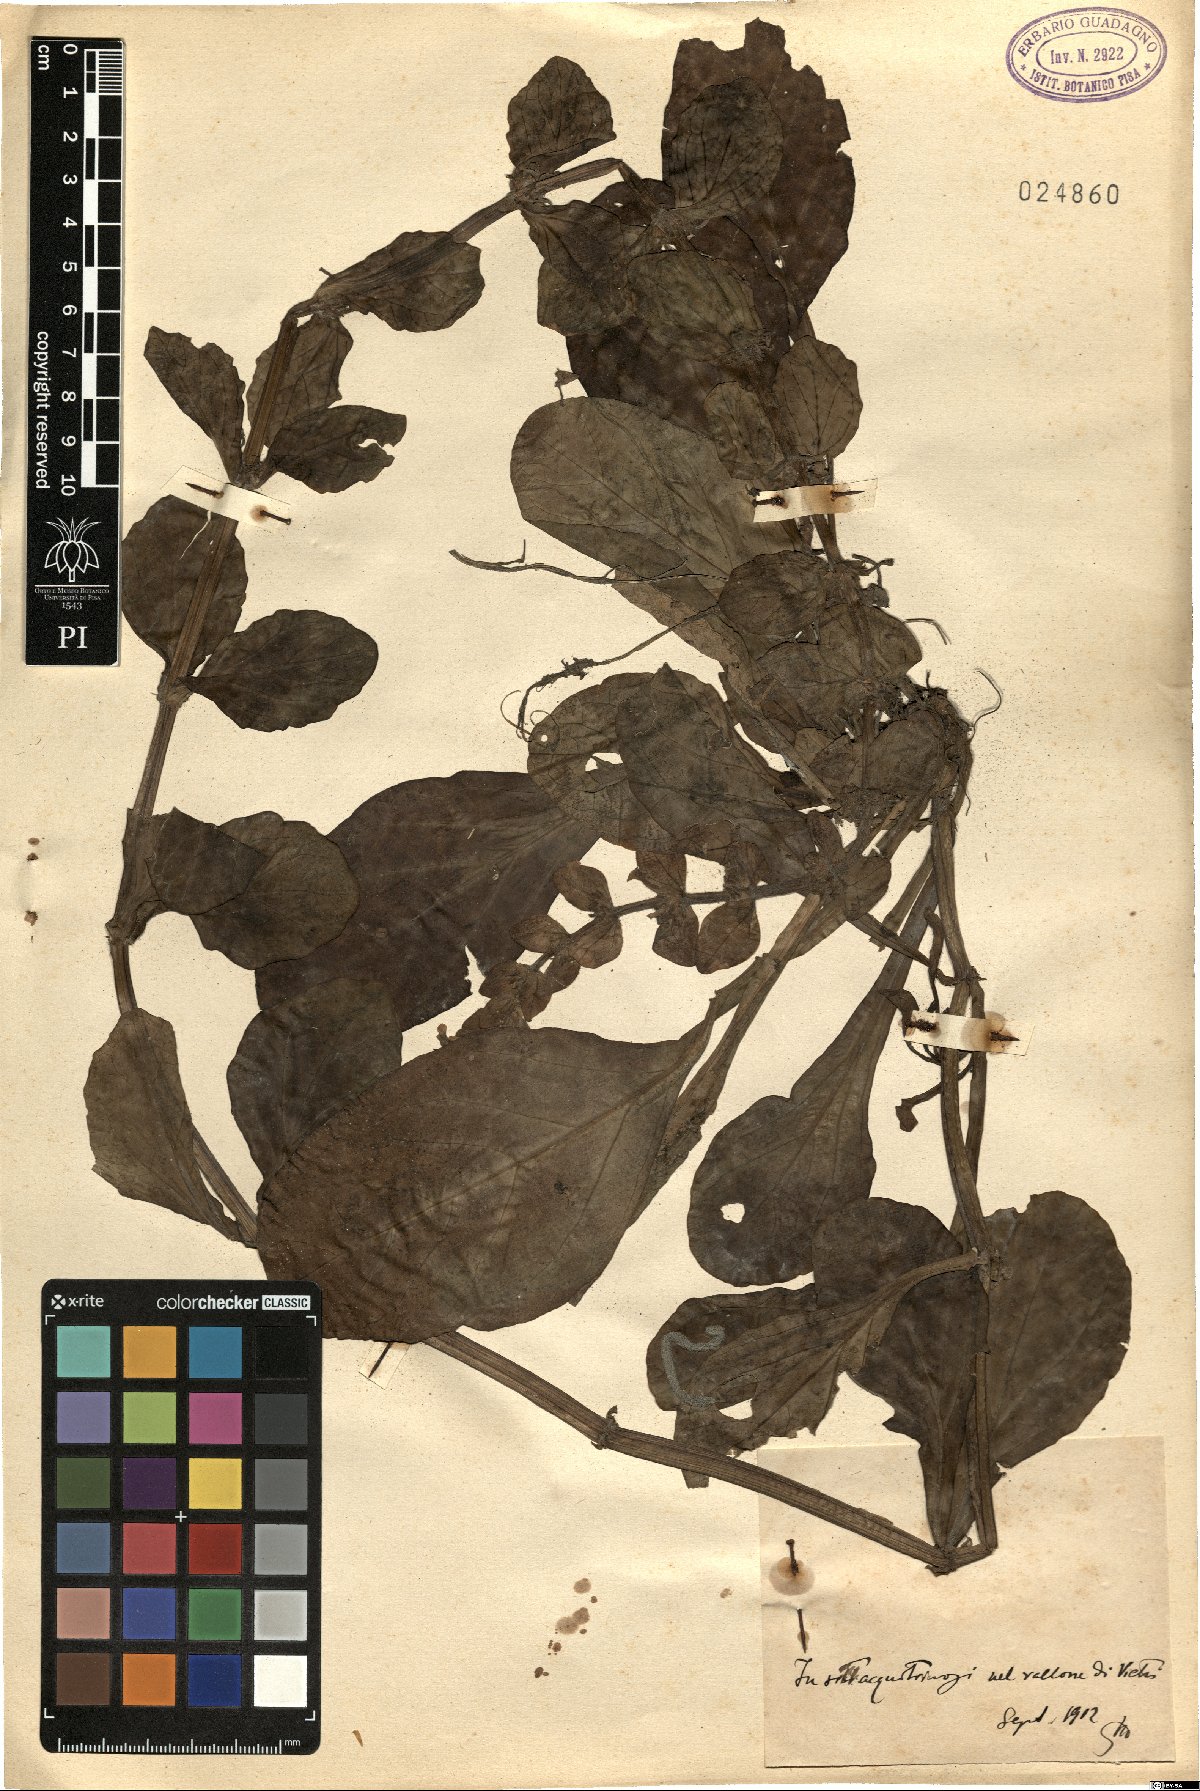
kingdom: Plantae
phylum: Tracheophyta
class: Magnoliopsida
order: Lamiales
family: Lamiaceae
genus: Ajuga
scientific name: Ajuga
